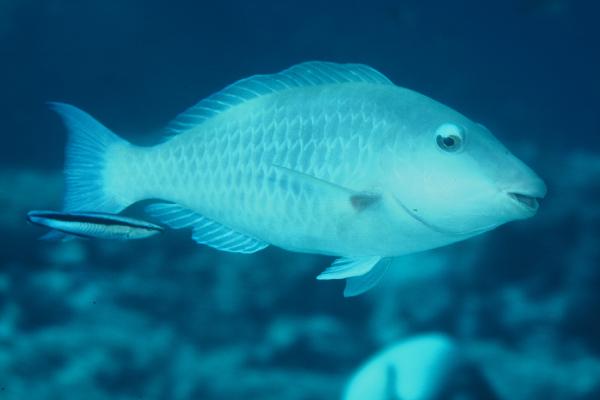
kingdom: Animalia
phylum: Chordata
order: Perciformes
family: Scaridae
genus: Hipposcarus
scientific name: Hipposcarus harid
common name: Candelamoa parrotfish
